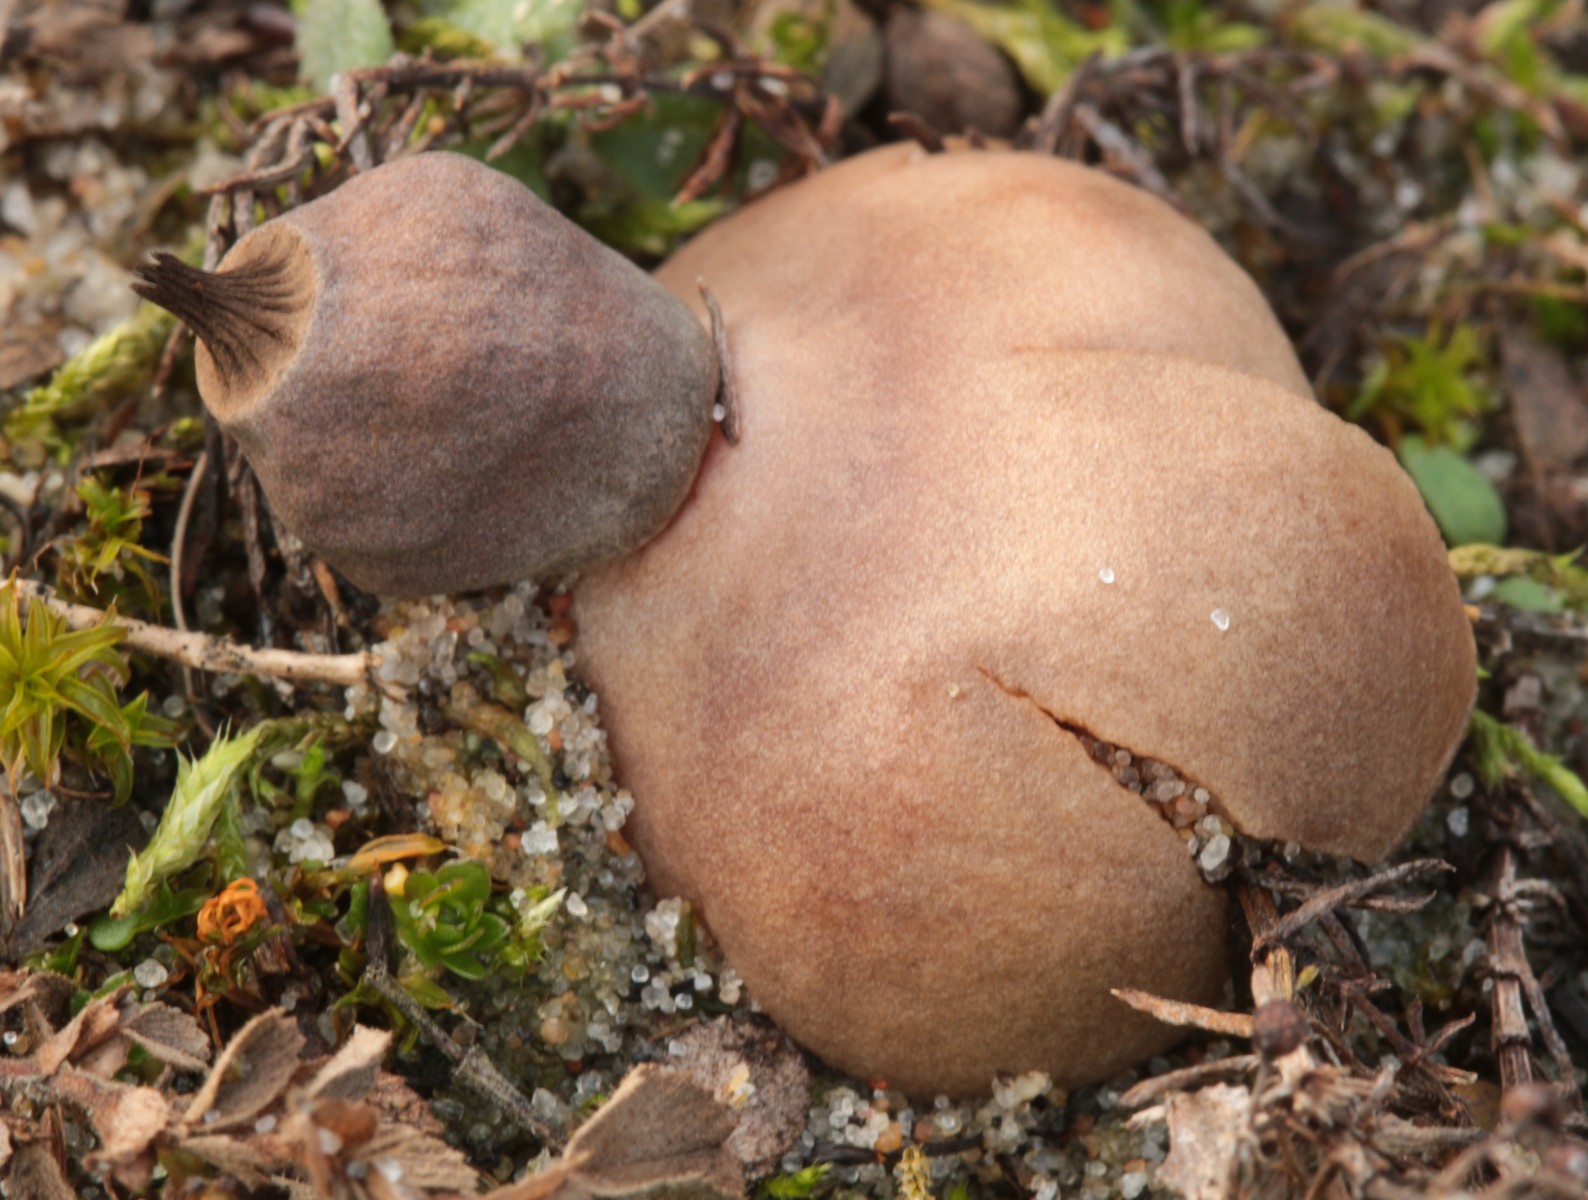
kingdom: Fungi
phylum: Basidiomycota
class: Agaricomycetes
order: Geastrales
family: Geastraceae
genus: Geastrum
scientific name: Geastrum striatum
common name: dværg-stjernebold
